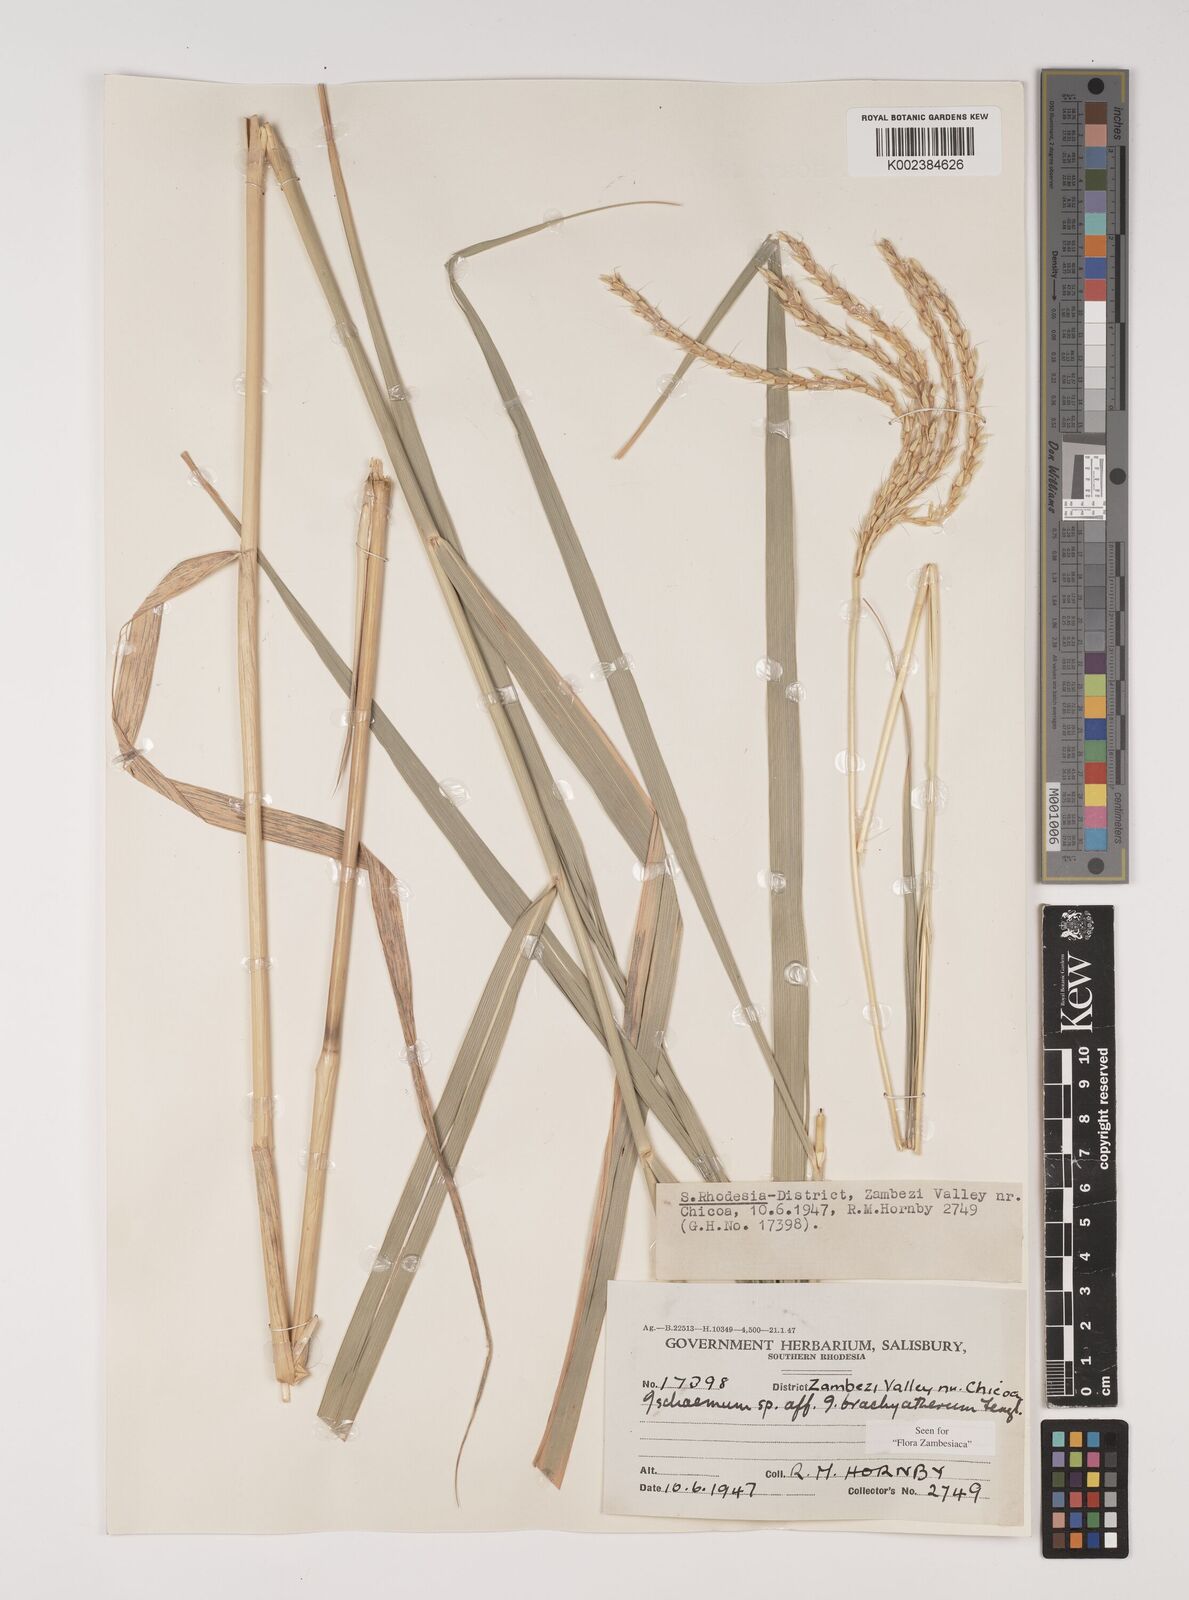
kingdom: Plantae
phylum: Tracheophyta
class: Liliopsida
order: Poales
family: Poaceae
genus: Ischaemum
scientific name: Ischaemum afrum
